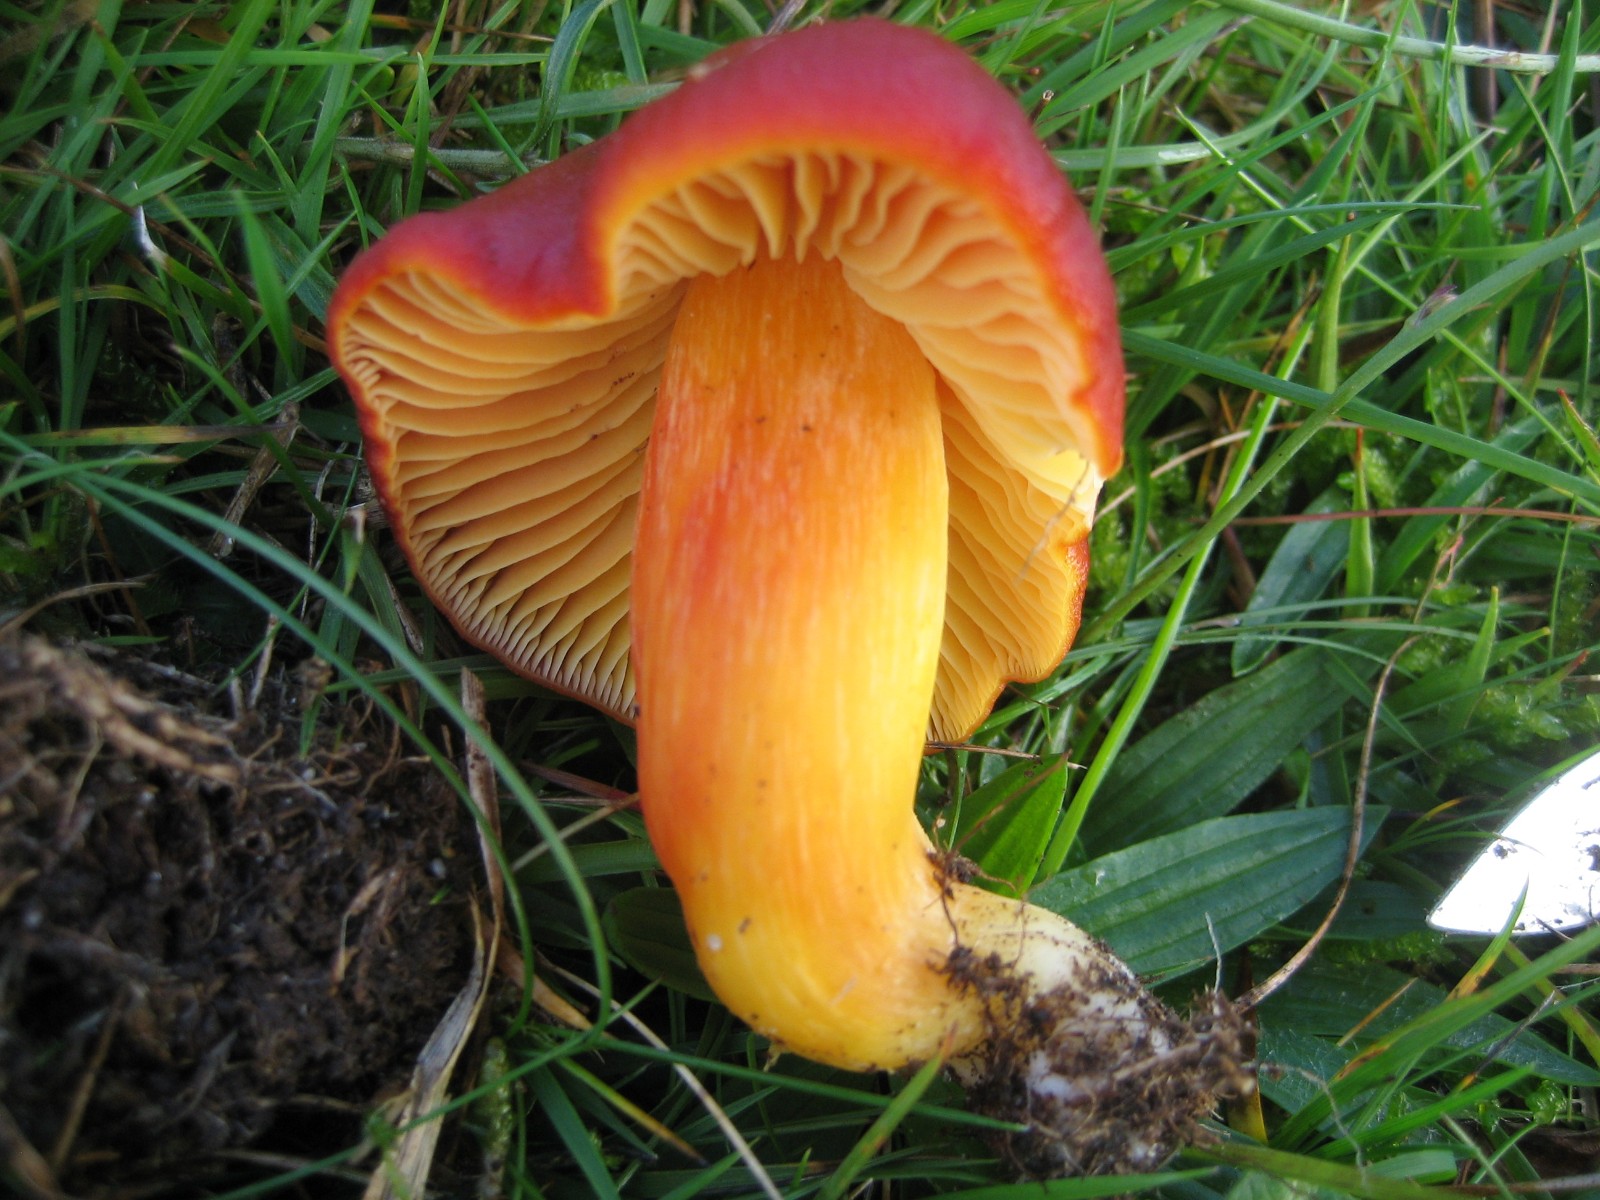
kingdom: Fungi
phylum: Basidiomycota
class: Agaricomycetes
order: Agaricales
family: Hygrophoraceae
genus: Hygrocybe
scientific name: Hygrocybe punicea
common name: skarlagen-vokshat
